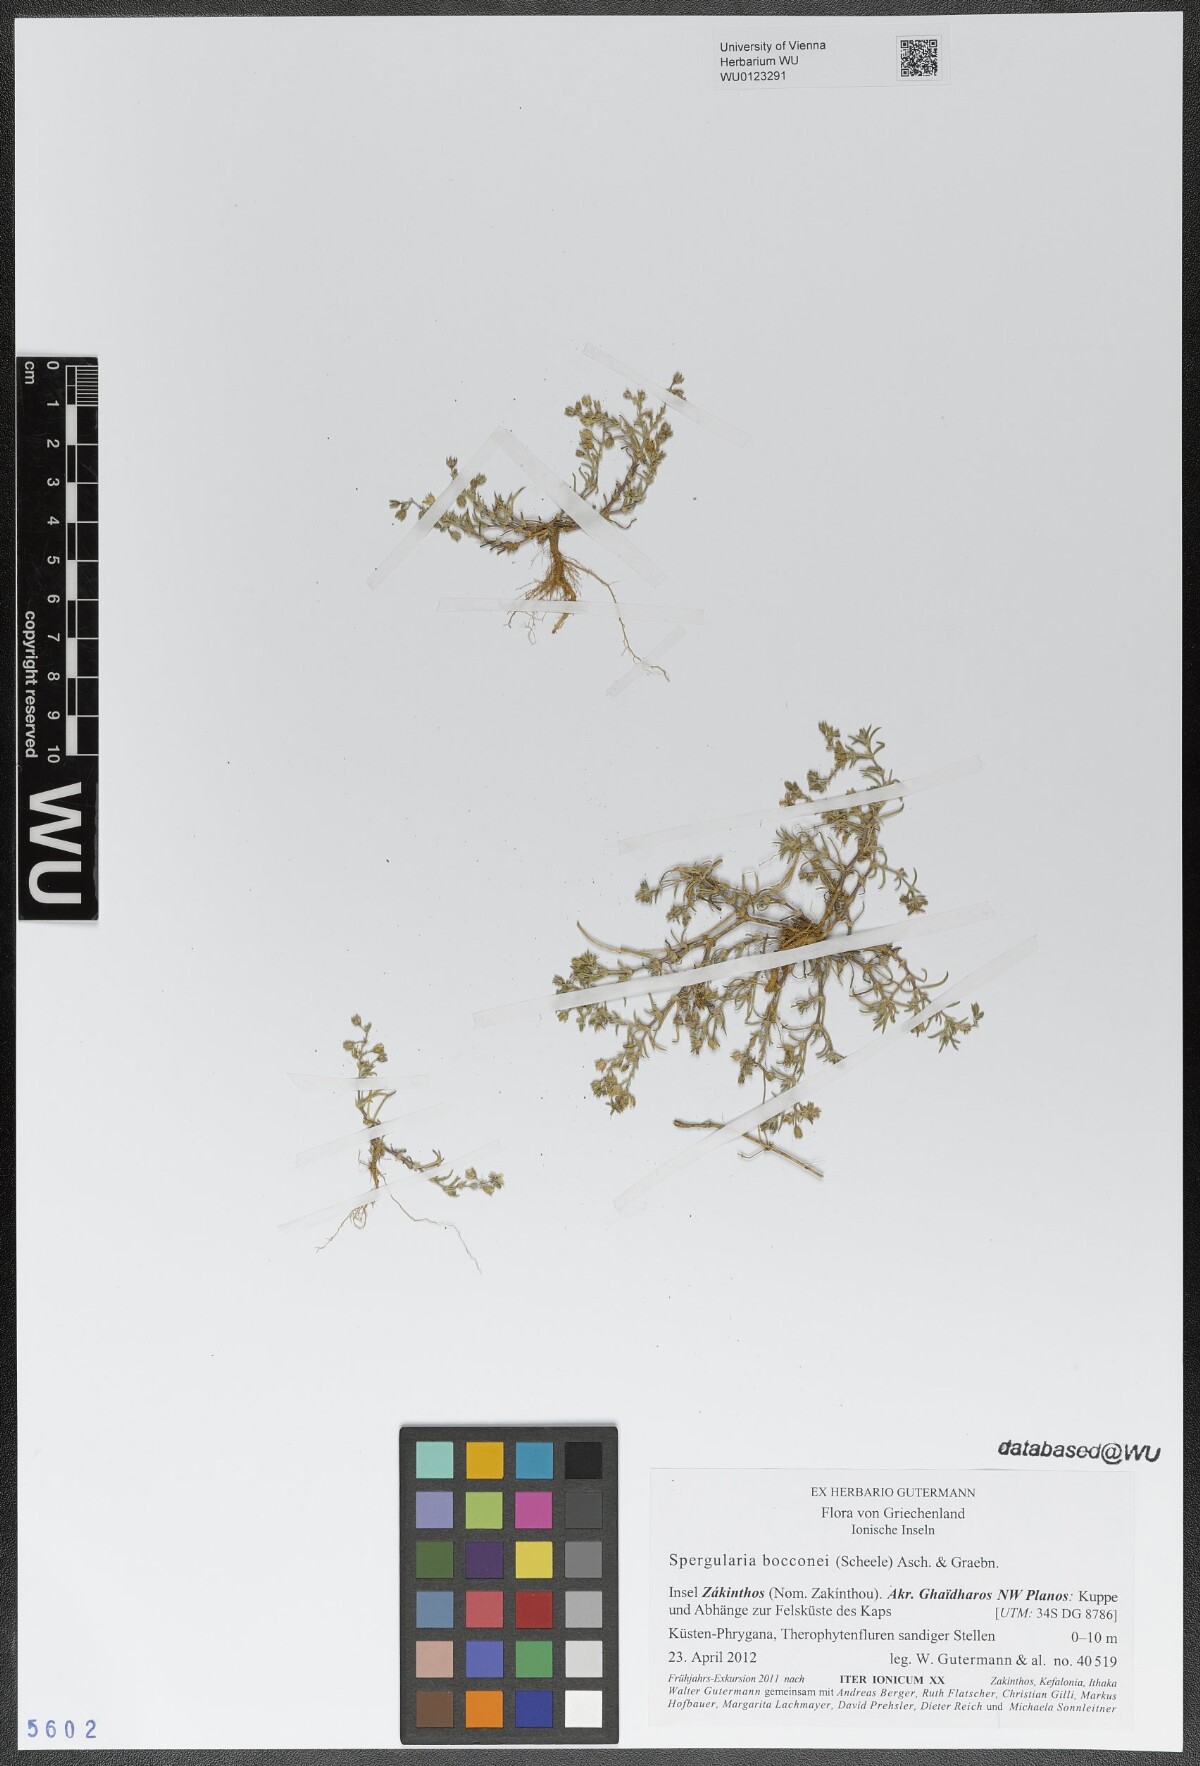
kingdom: Plantae
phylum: Tracheophyta
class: Magnoliopsida
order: Caryophyllales
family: Caryophyllaceae
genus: Spergularia
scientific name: Spergularia bocconei
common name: Greek sea-spurrey
